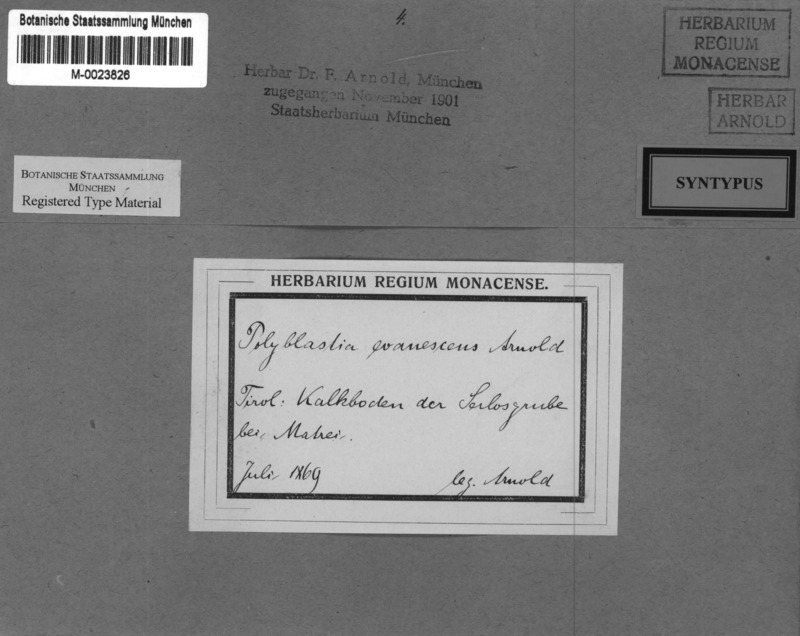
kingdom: Fungi
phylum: Ascomycota
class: Eurotiomycetes
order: Verrucariales
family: Verrucariaceae
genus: Polyblastia
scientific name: Polyblastia evanescens
